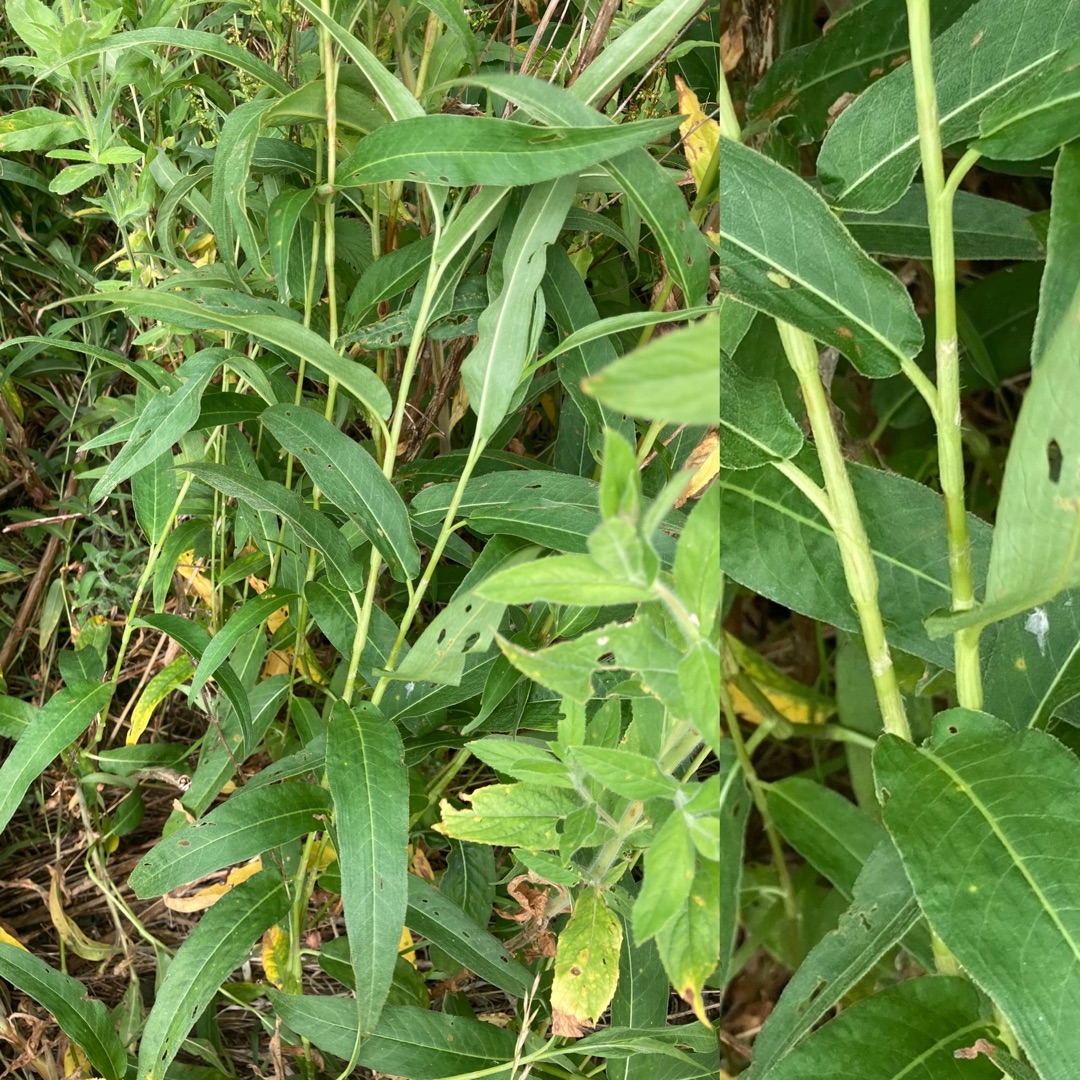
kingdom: Plantae
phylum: Tracheophyta
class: Magnoliopsida
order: Caryophyllales
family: Polygonaceae
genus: Persicaria
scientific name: Persicaria amphibia
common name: Vand-pileurt
